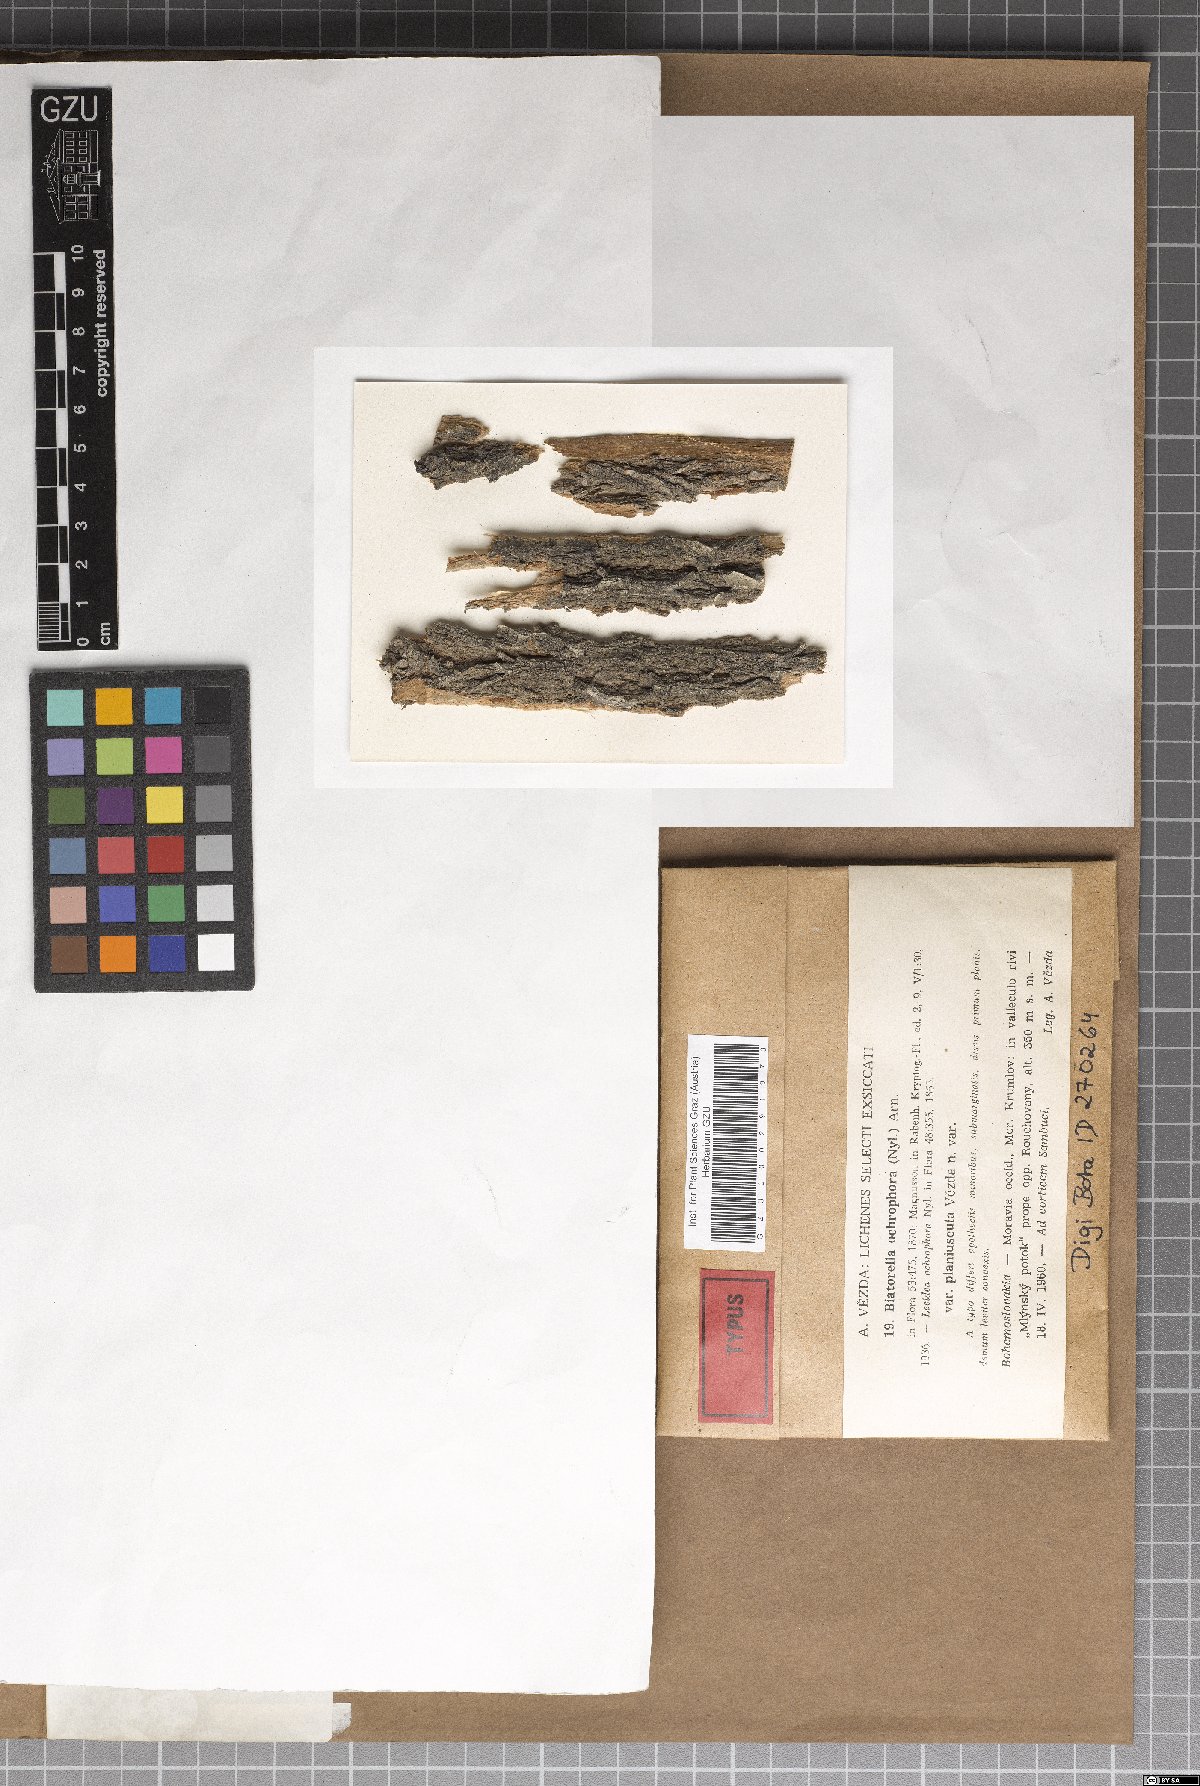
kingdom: Fungi
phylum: Ascomycota
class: Lecanoromycetes
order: Lecanorales
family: Biatorellaceae
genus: Piccolia
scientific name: Piccolia ochrophora
